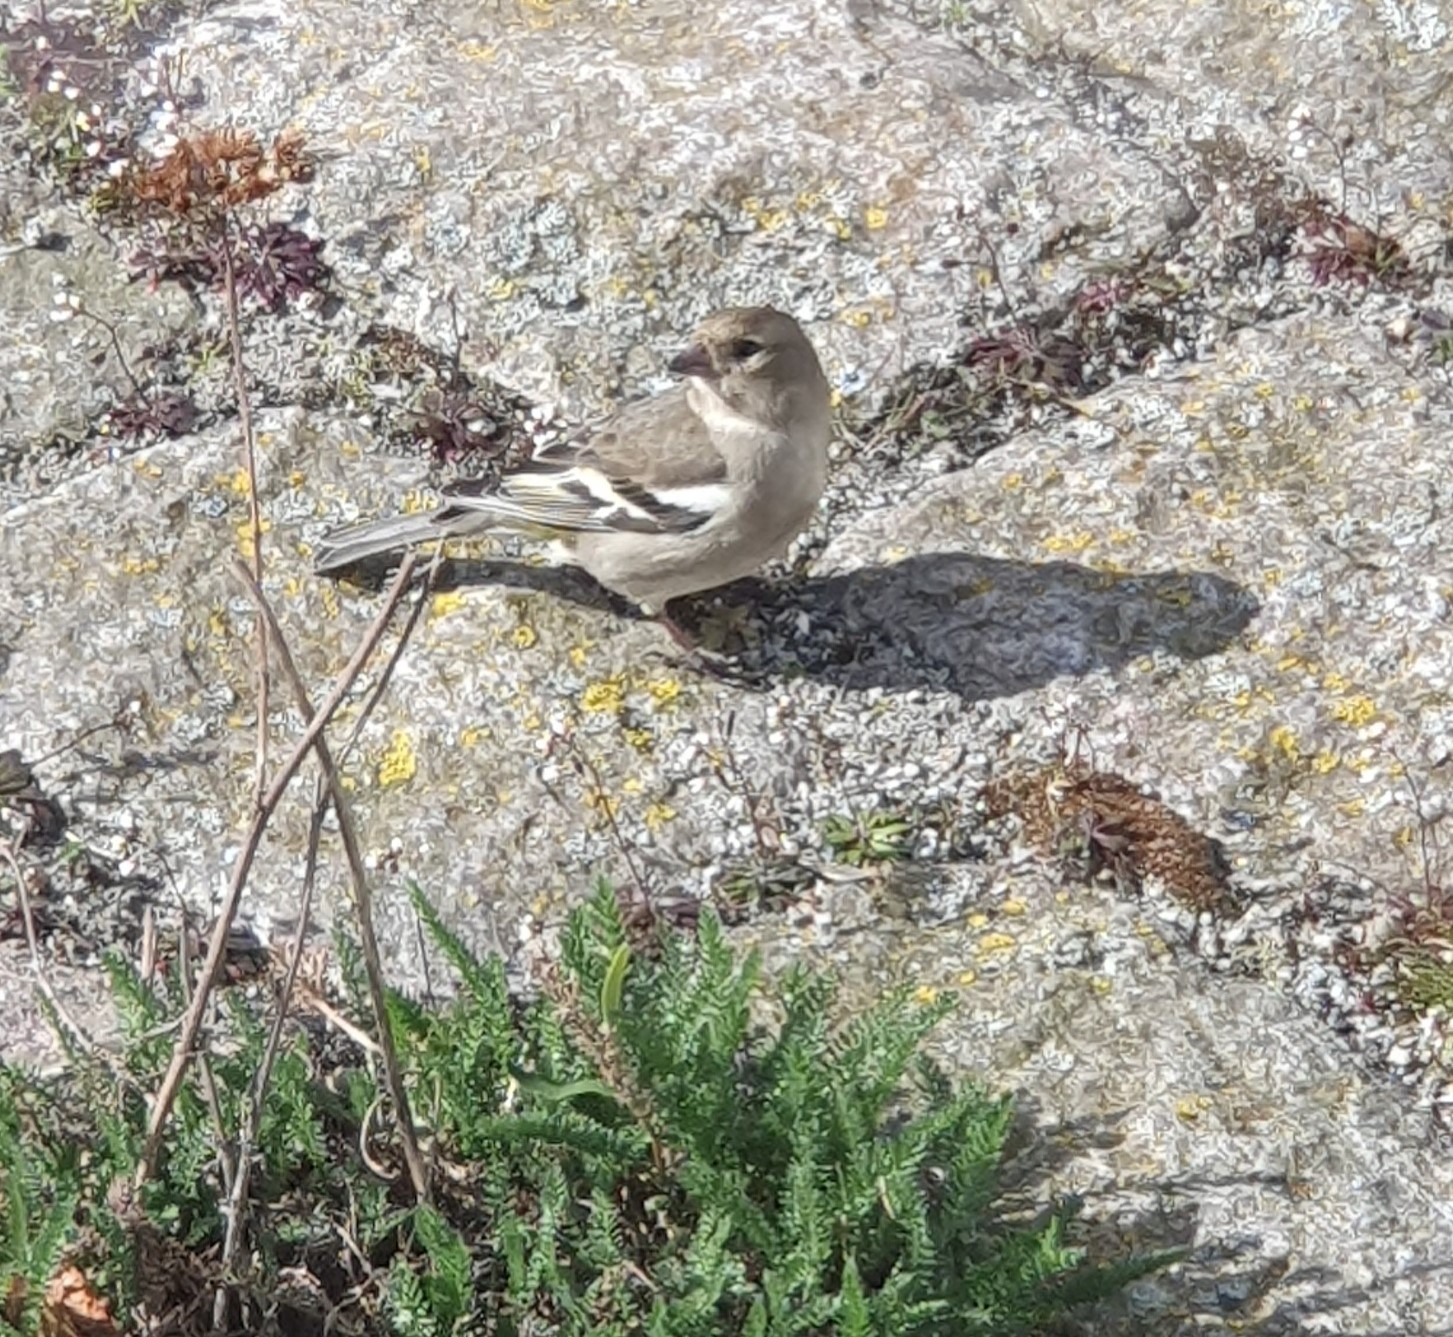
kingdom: Animalia
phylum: Chordata
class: Aves
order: Passeriformes
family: Fringillidae
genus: Fringilla
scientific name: Fringilla coelebs
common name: Bogfinke
